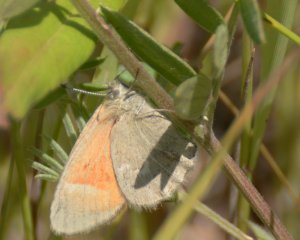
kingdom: Animalia
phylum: Arthropoda
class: Insecta
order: Lepidoptera
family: Nymphalidae
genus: Coenonympha
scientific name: Coenonympha tullia
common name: Large Heath
